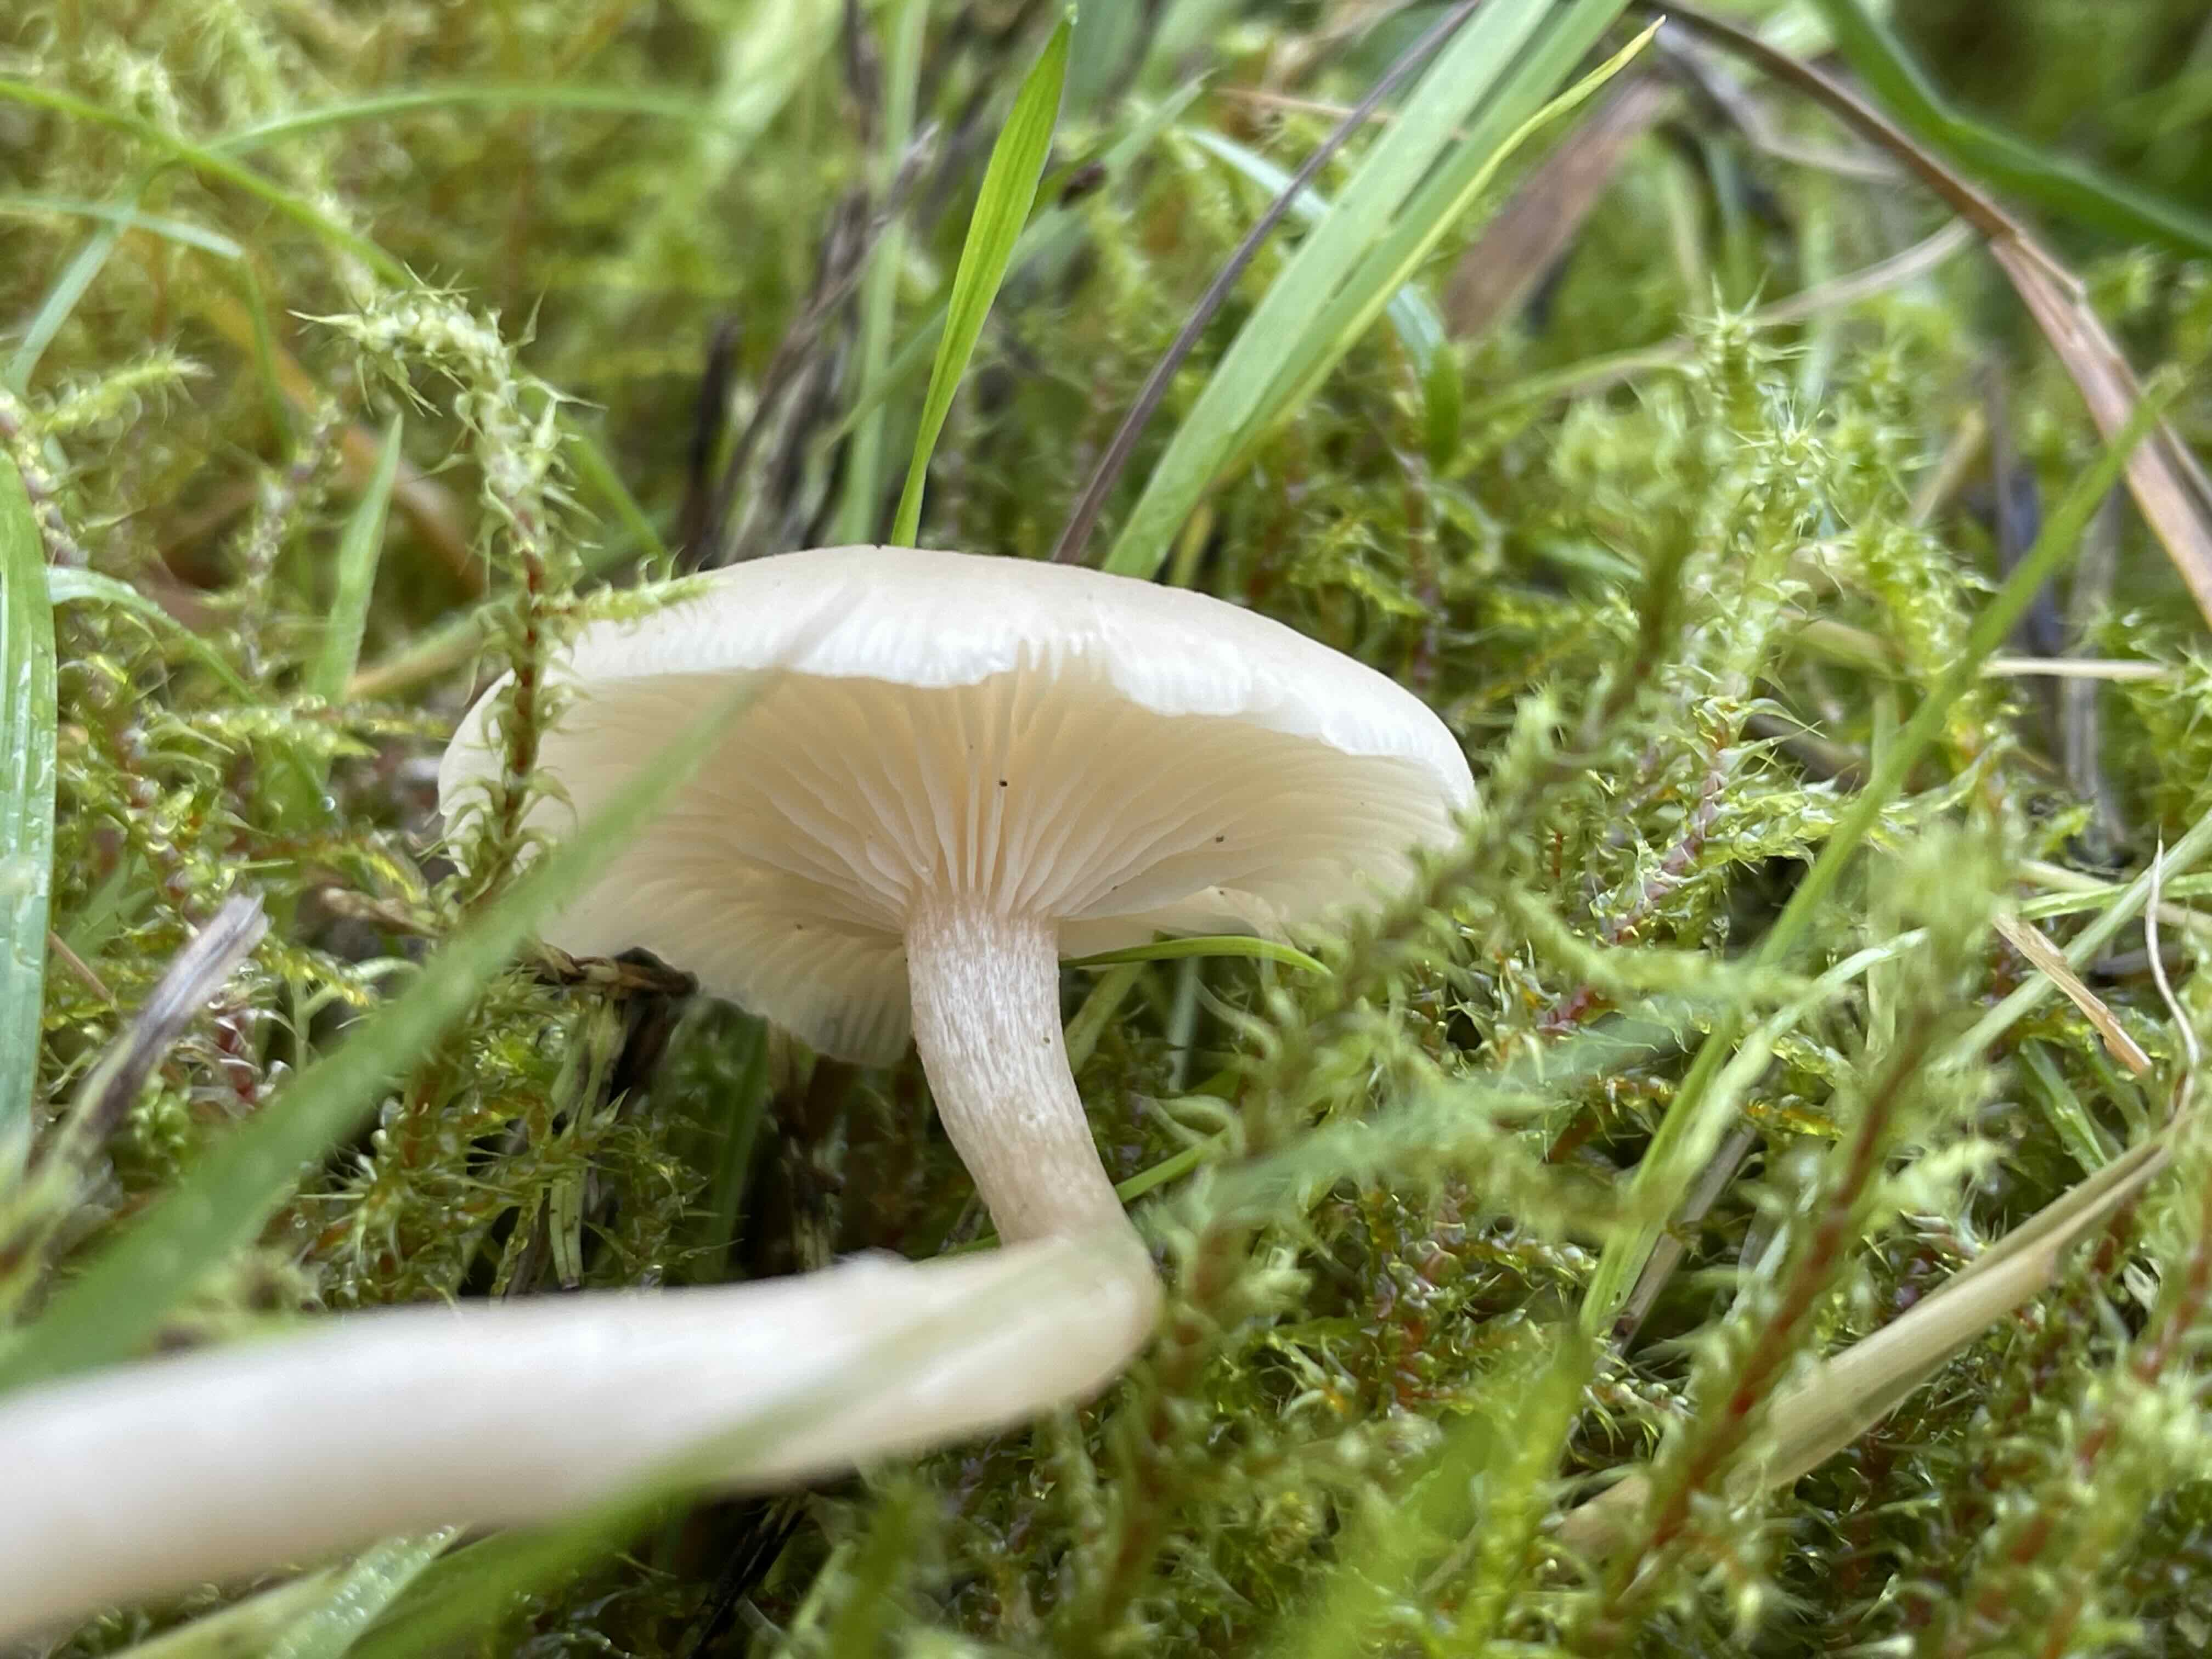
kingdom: Fungi
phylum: Basidiomycota
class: Agaricomycetes
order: Agaricales
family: Tricholomataceae
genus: Clitocybe
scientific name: Clitocybe fragrans
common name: vellugtende tragthat
